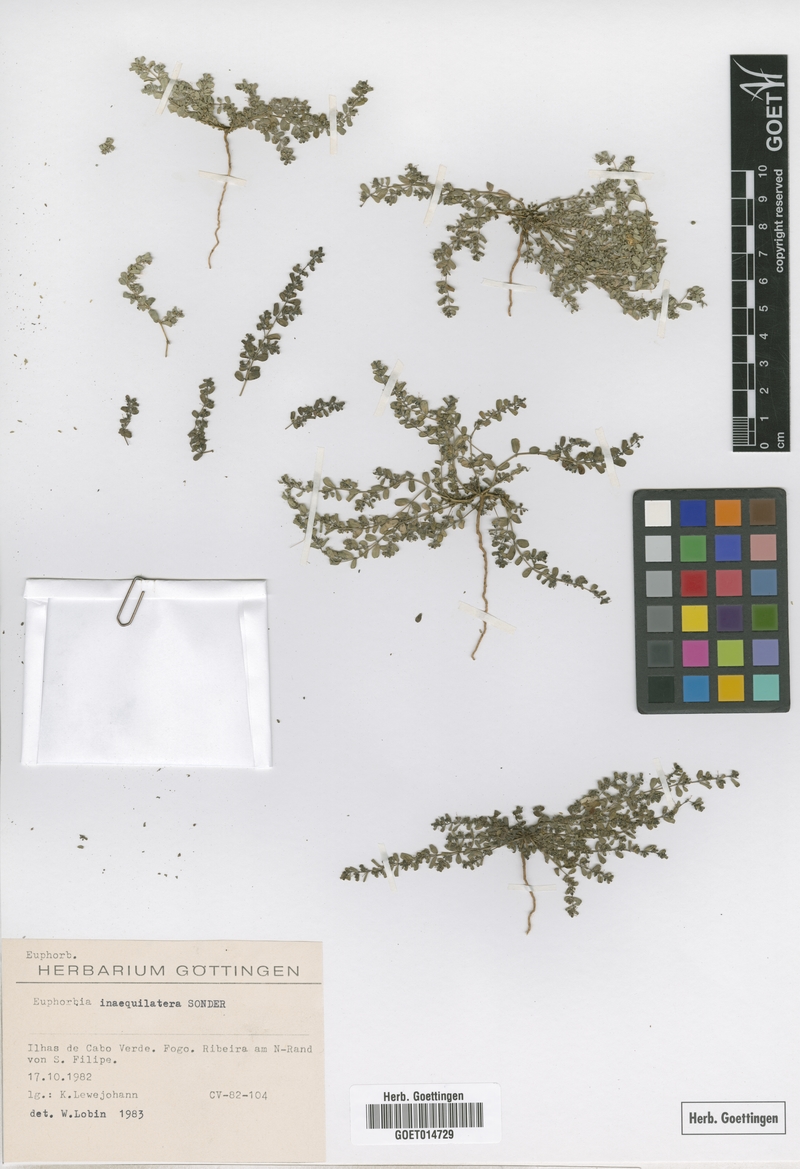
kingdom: Plantae
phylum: Tracheophyta
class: Magnoliopsida
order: Malpighiales
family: Euphorbiaceae
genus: Euphorbia
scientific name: Euphorbia inaequilatera
